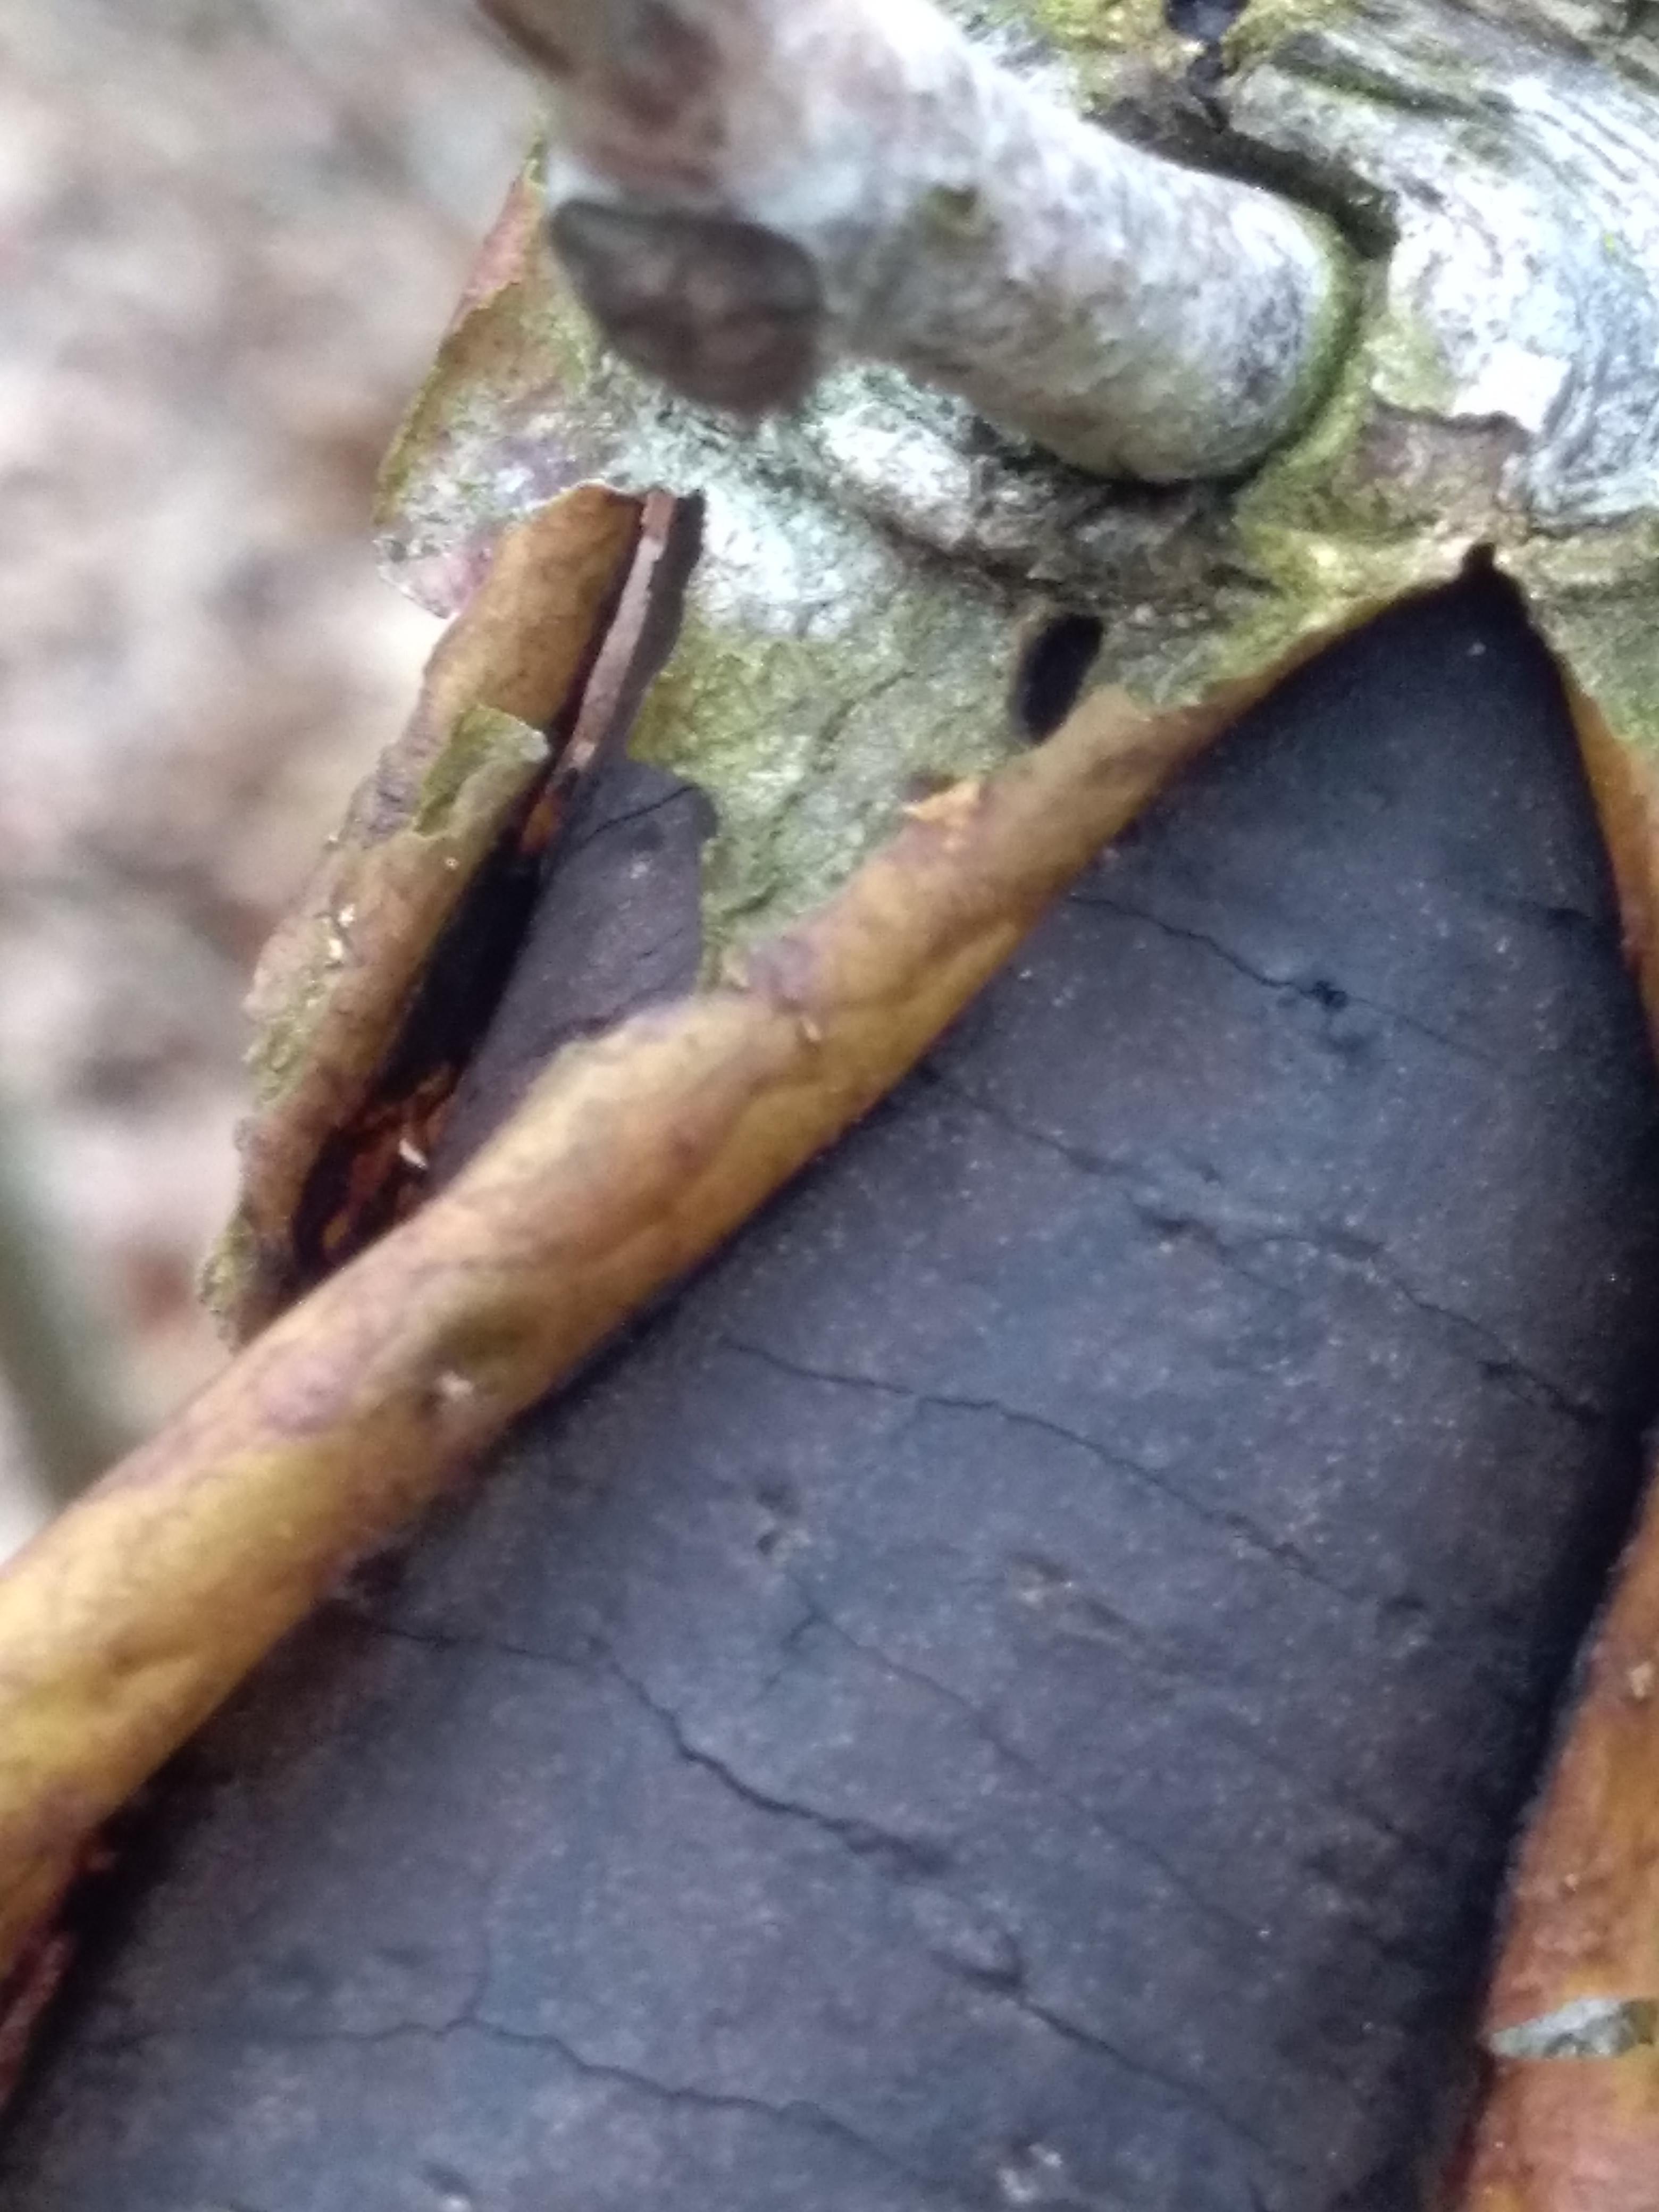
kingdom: Fungi
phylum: Ascomycota
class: Sordariomycetes
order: Xylariales
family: Diatrypaceae
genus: Diatrype
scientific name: Diatrype
